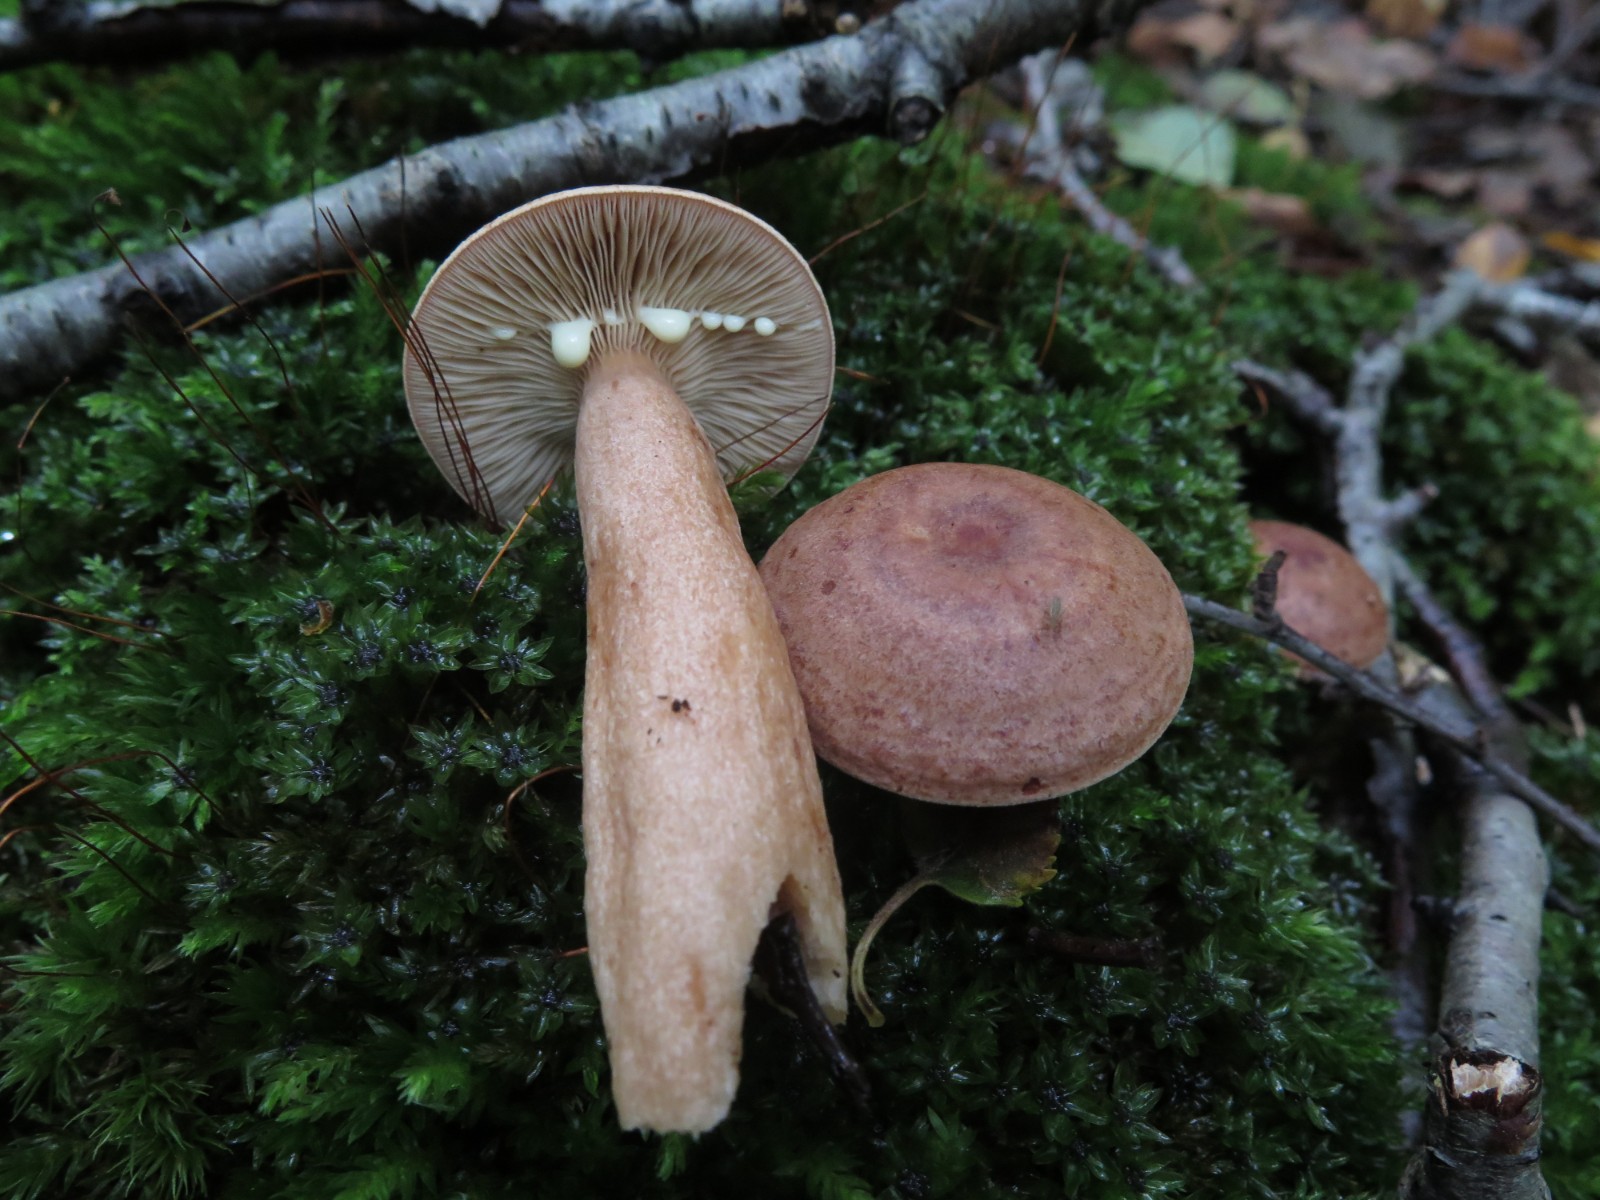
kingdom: Fungi
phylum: Basidiomycota
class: Agaricomycetes
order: Russulales
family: Russulaceae
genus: Lactarius
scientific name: Lactarius glyciosmus
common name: kokos-mælkehat
